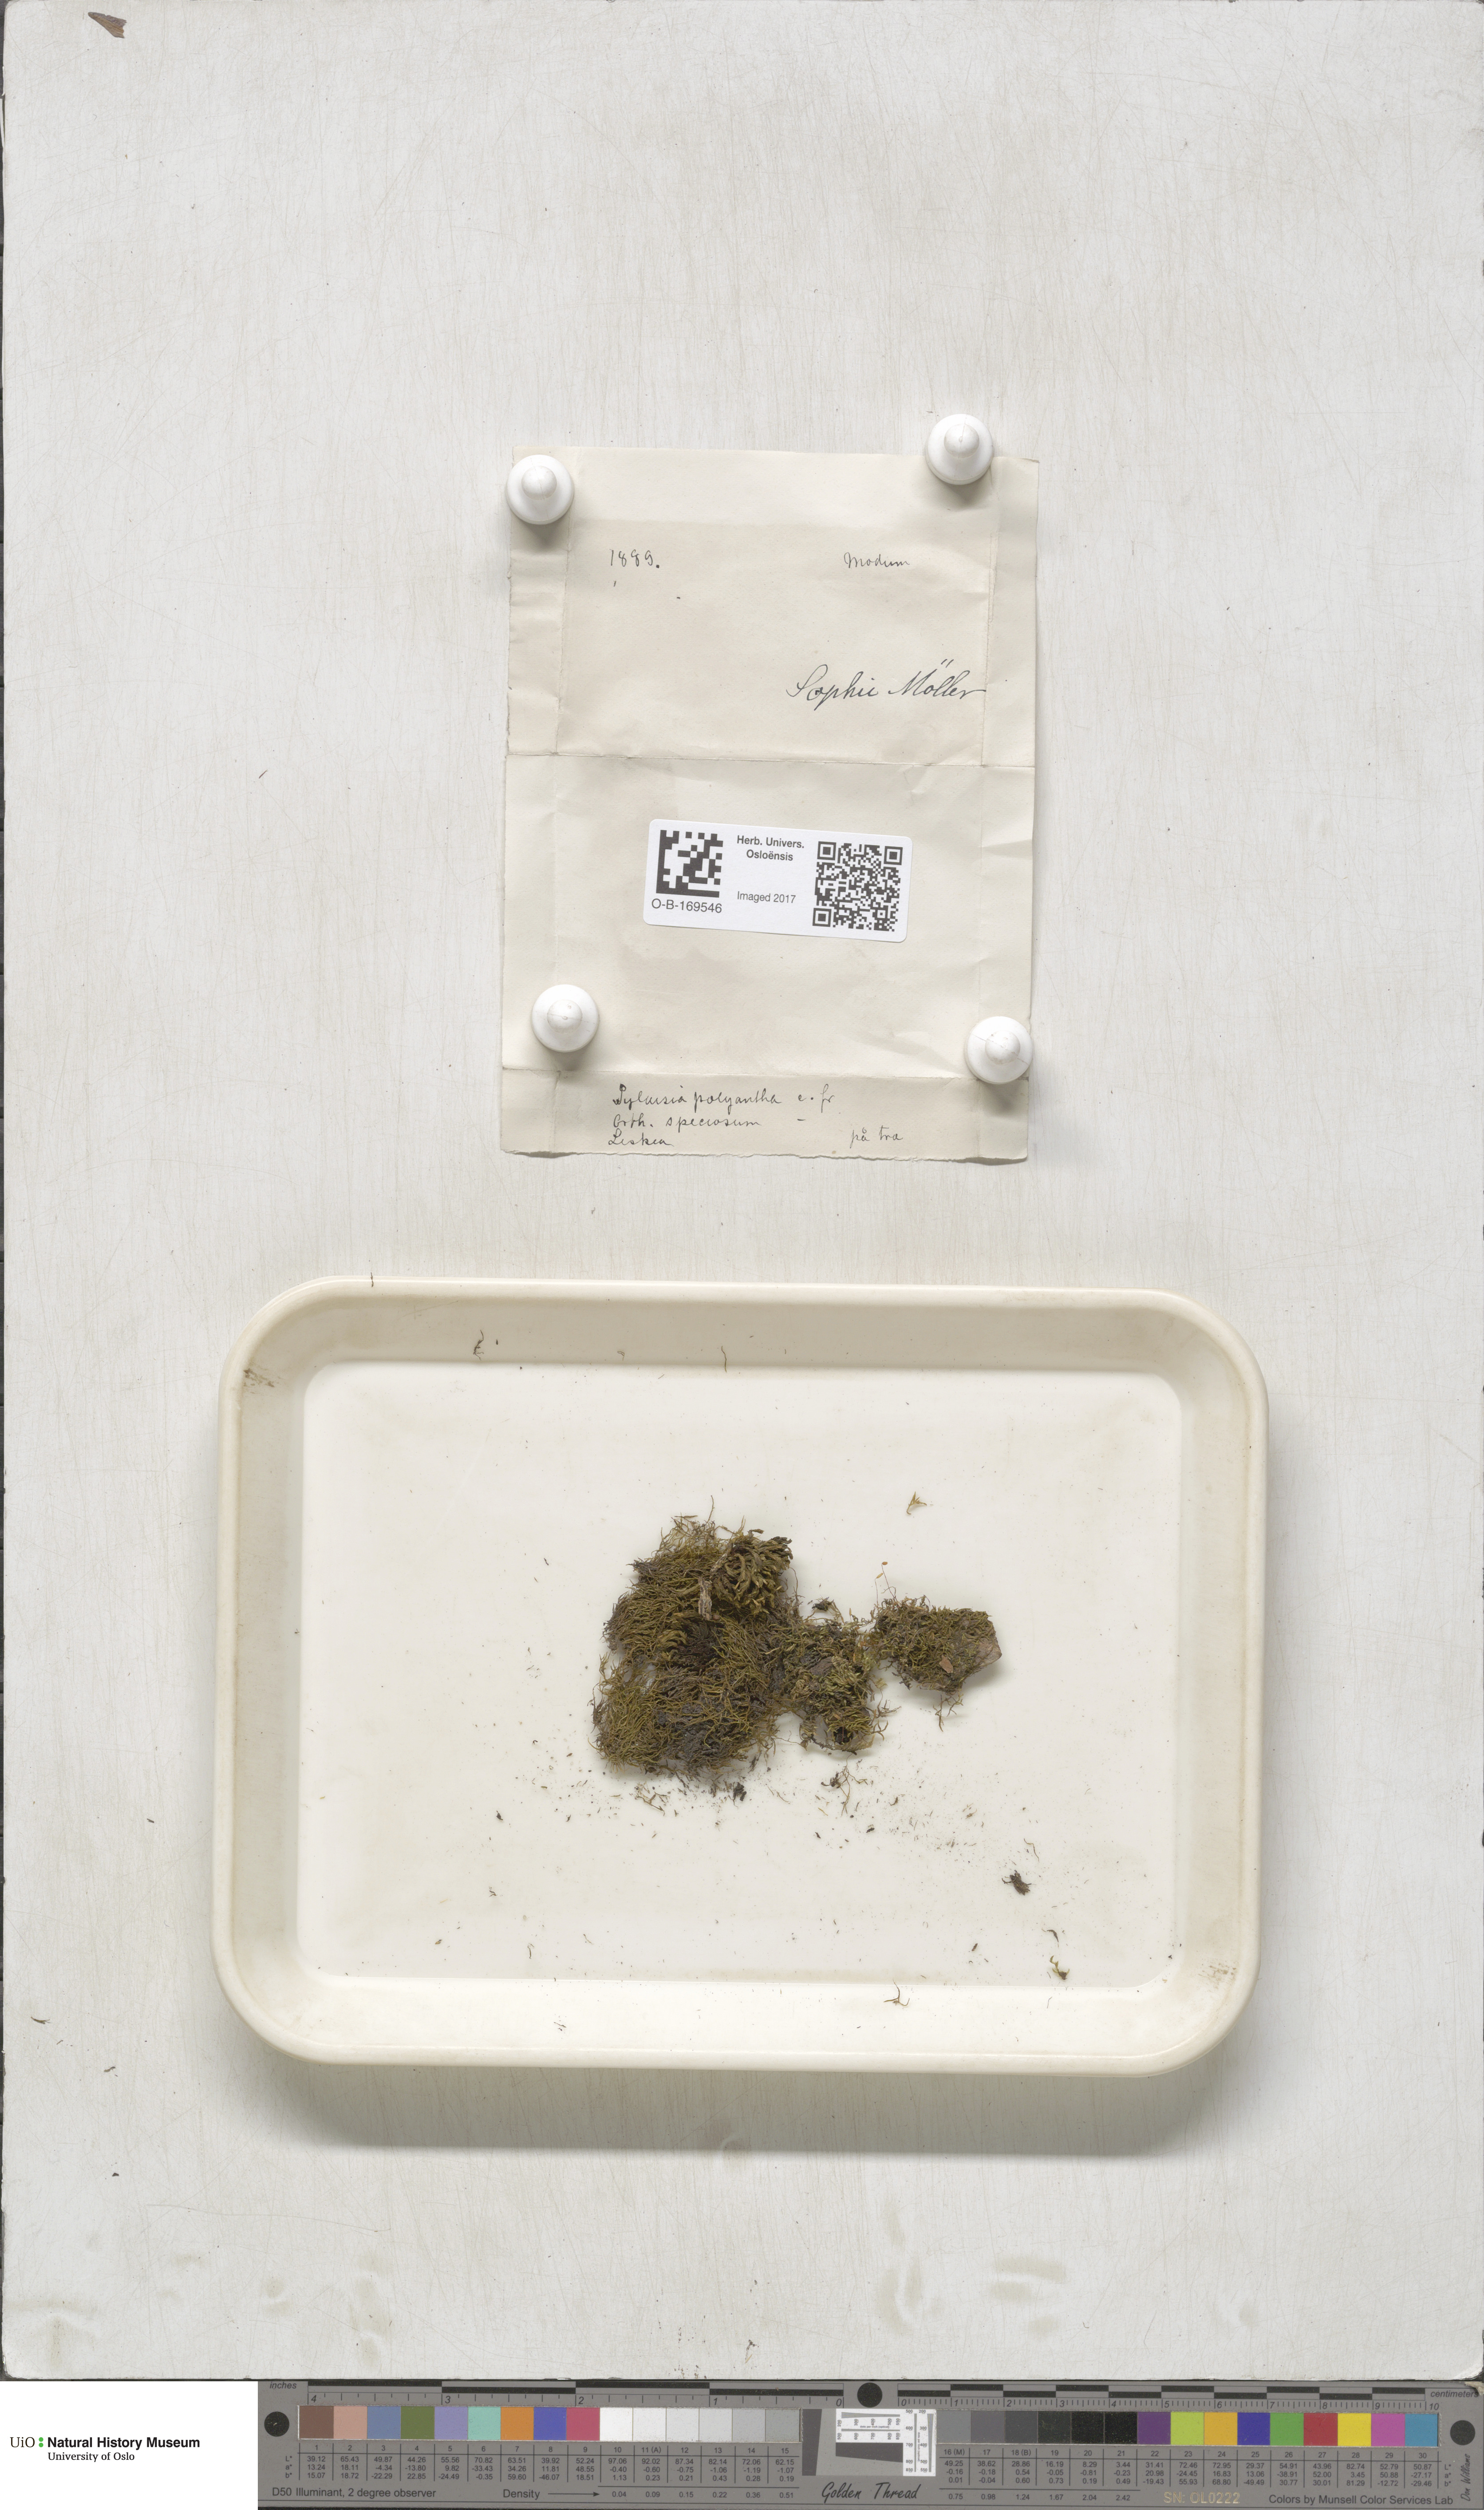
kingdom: Plantae
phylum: Bryophyta
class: Bryopsida
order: Hypnales
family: Pylaisiaceae
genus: Pylaisia
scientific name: Pylaisia polyantha
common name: Many-flowered leskea
